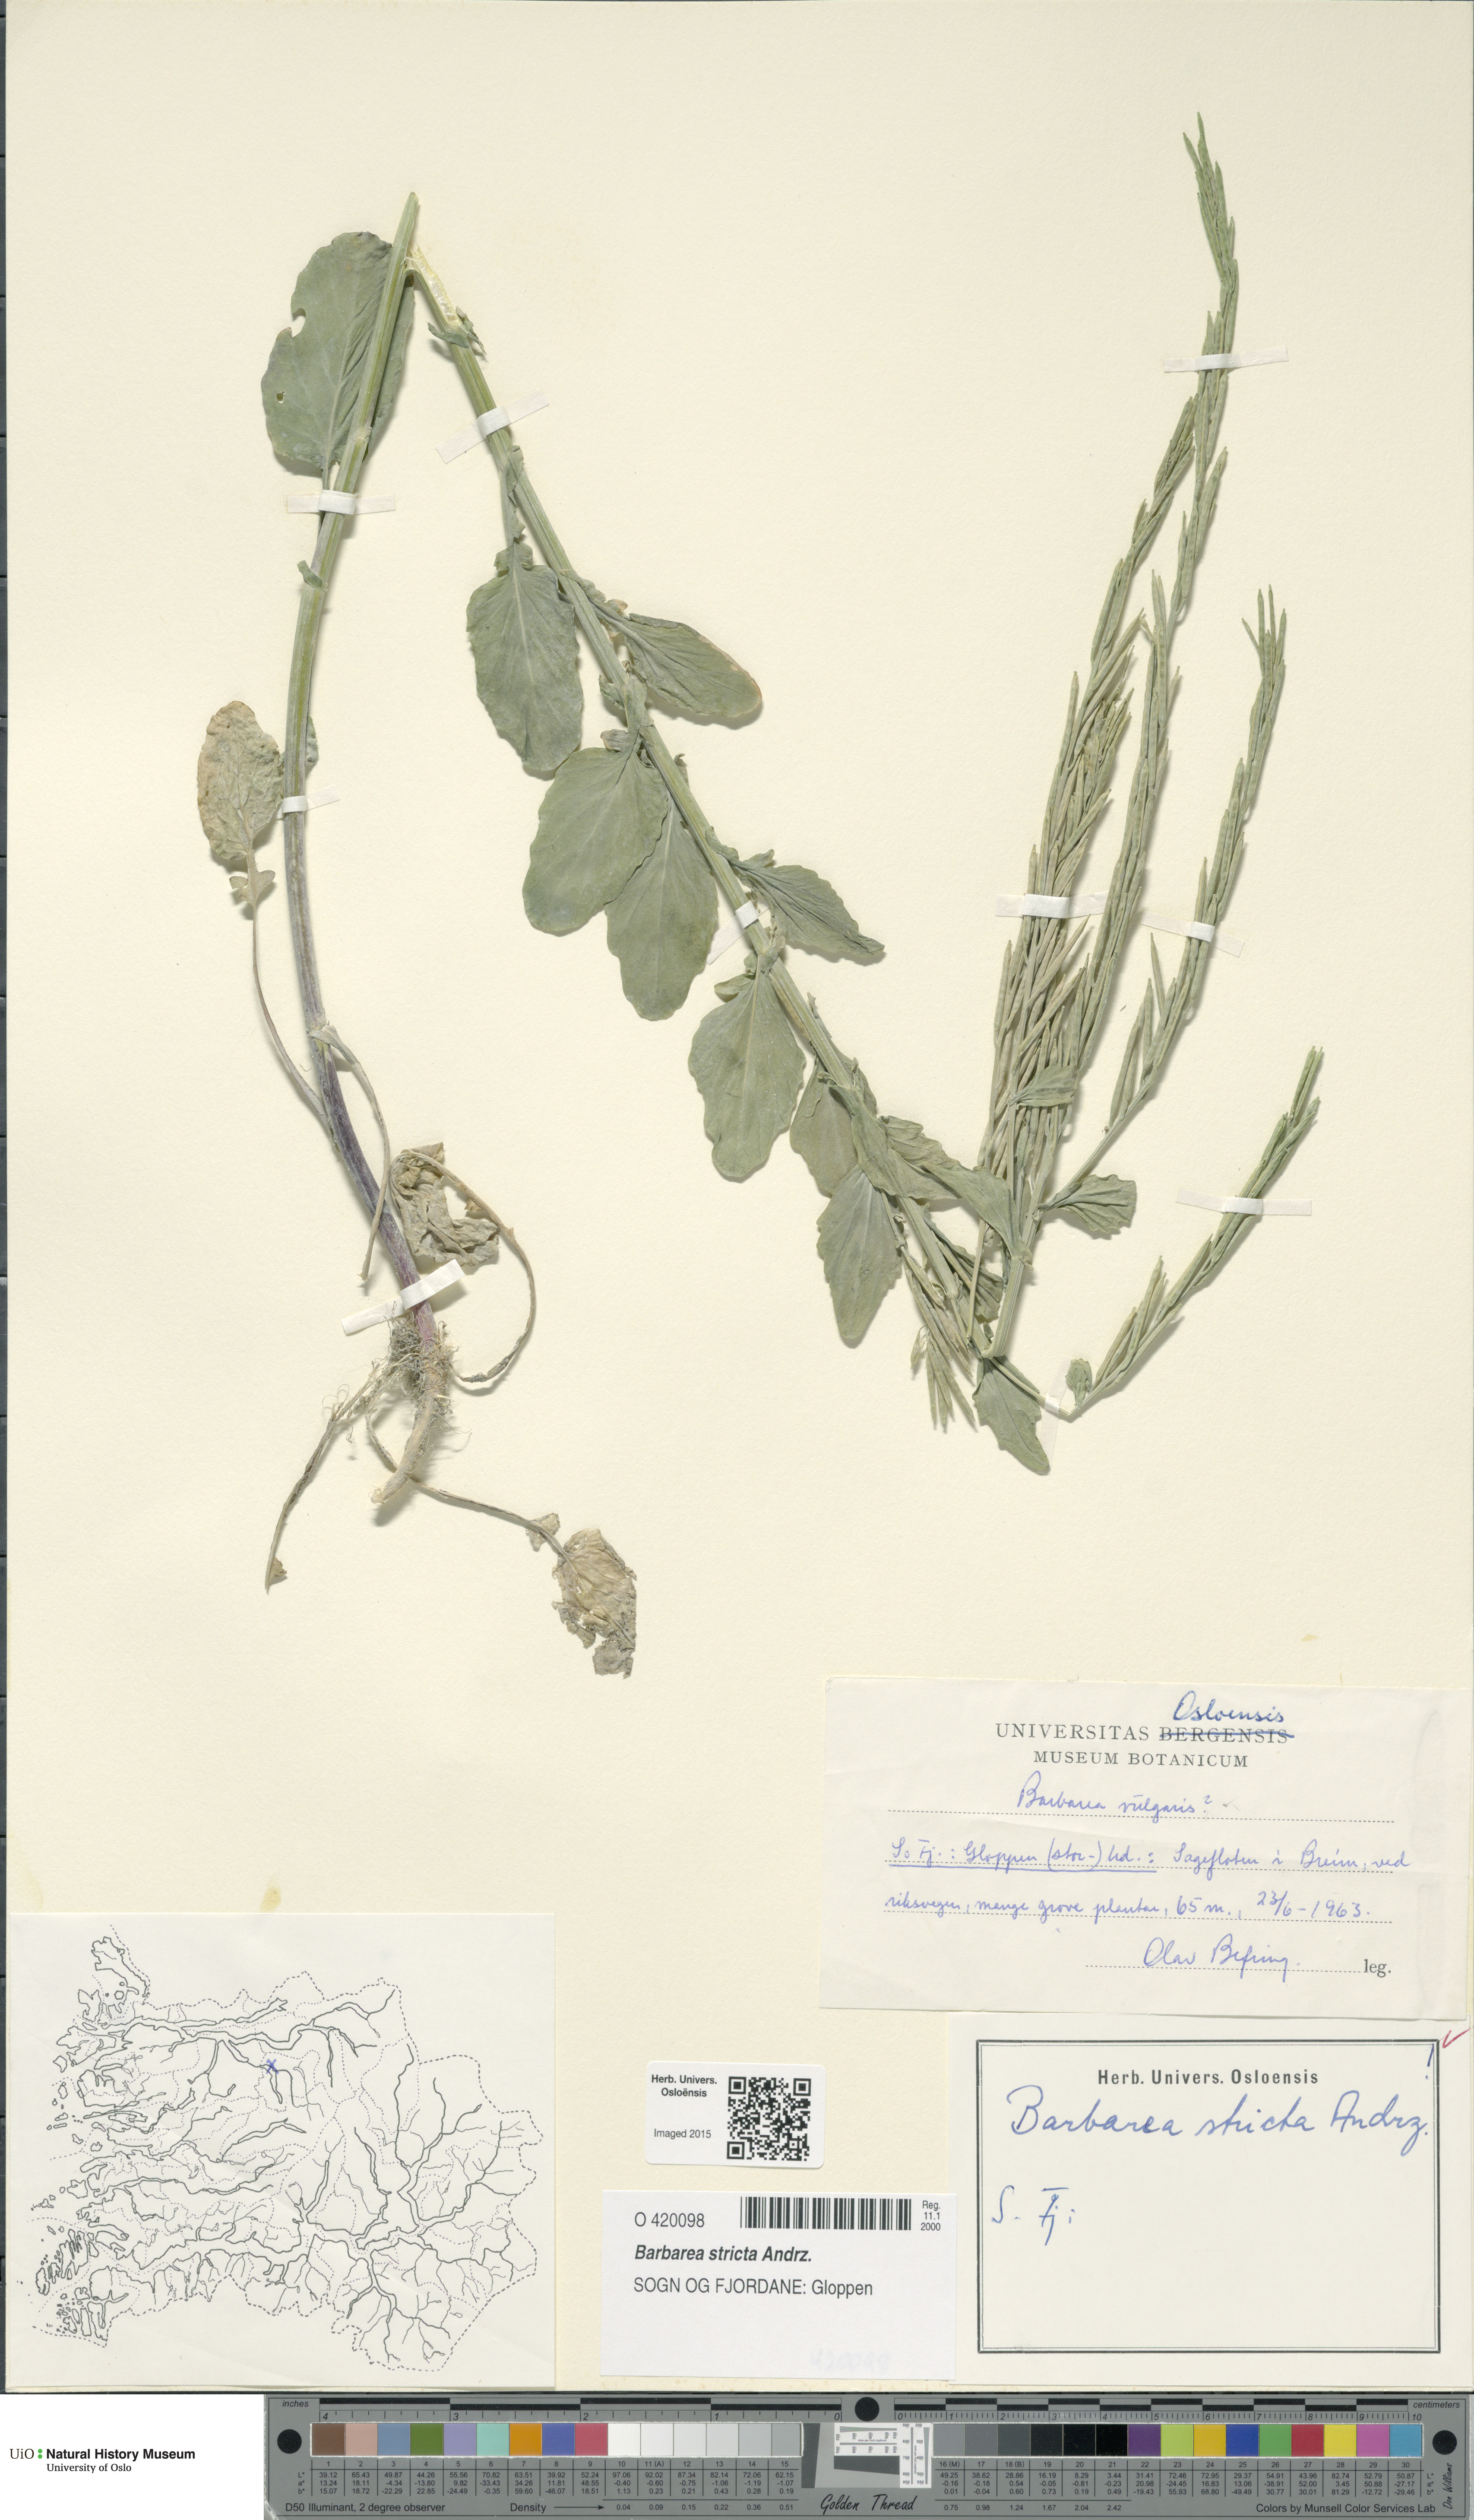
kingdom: Plantae
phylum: Tracheophyta
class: Magnoliopsida
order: Brassicales
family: Brassicaceae
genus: Barbarea
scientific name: Barbarea stricta
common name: Small-flowered winter-cress
